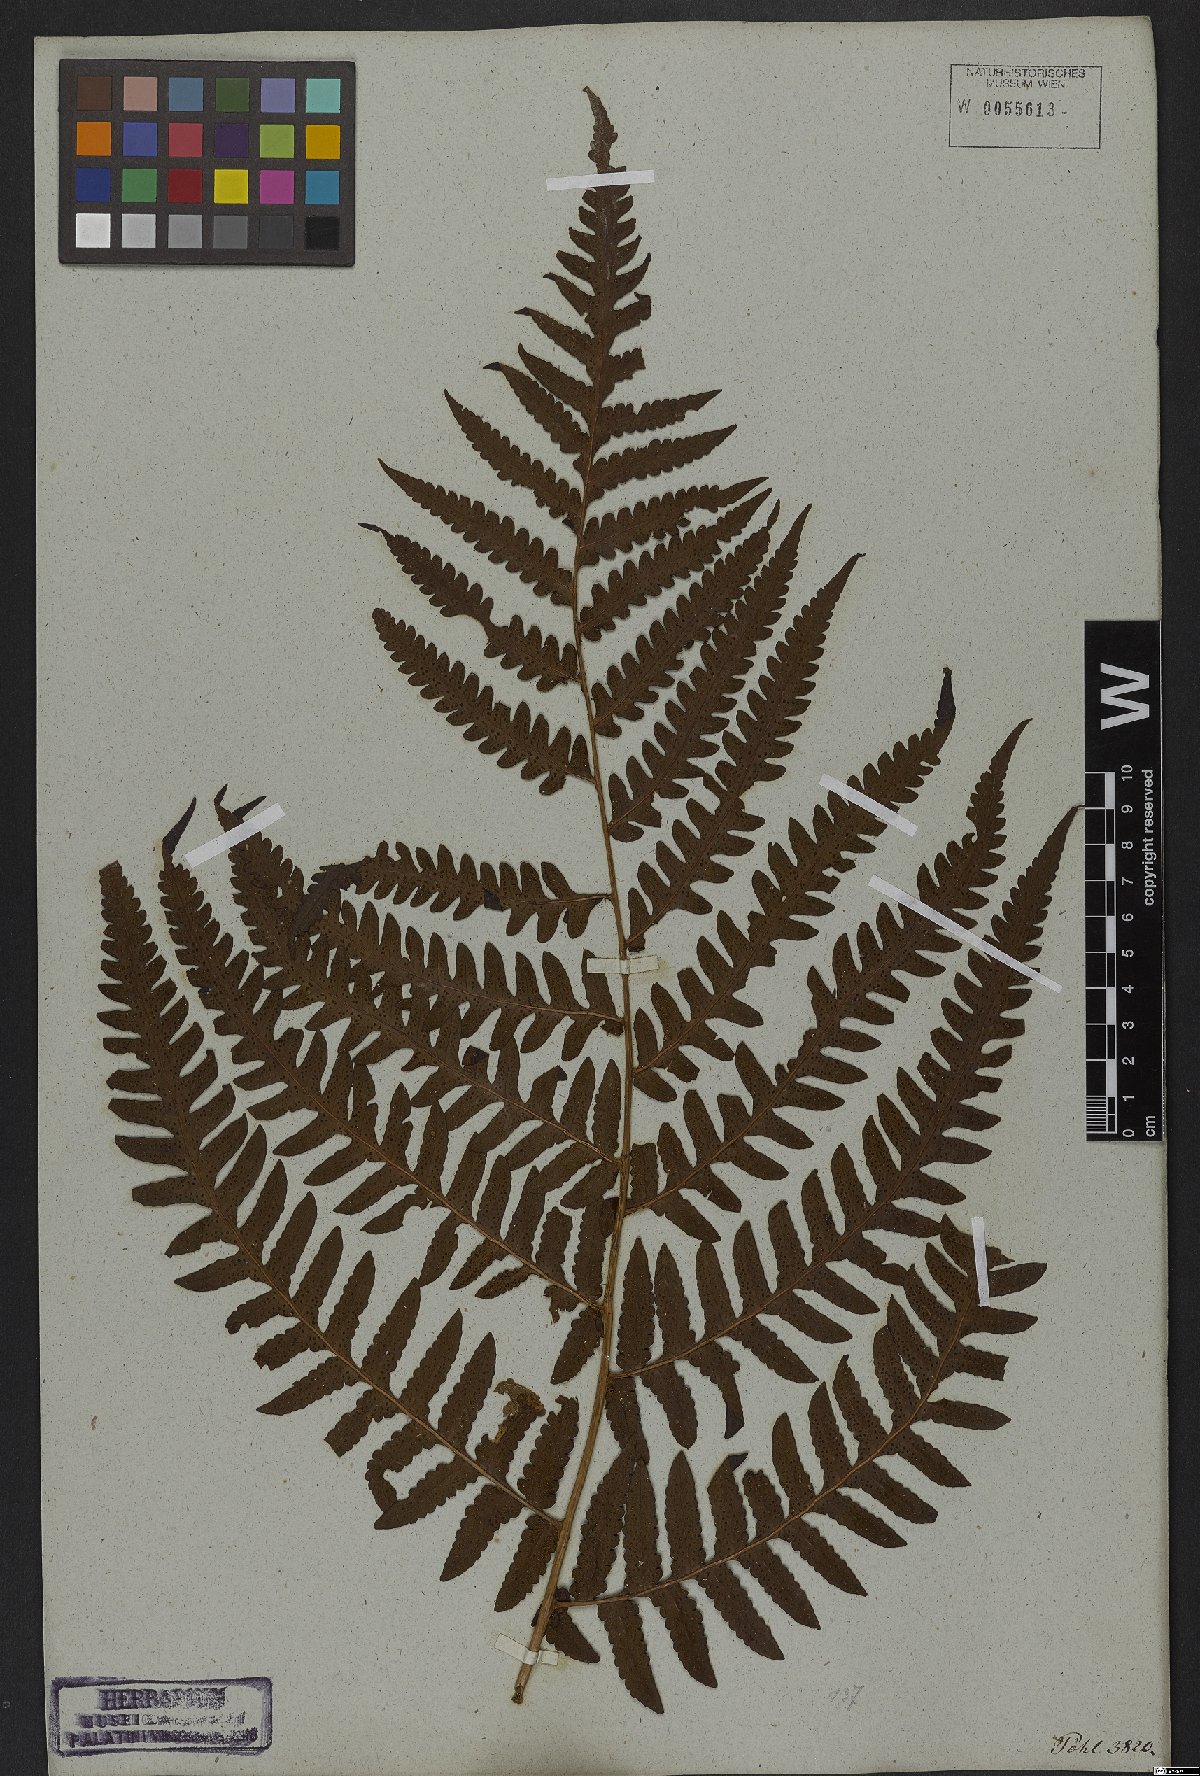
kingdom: Plantae
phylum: Tracheophyta
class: Polypodiopsida
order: Polypodiales
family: Dryopteridaceae
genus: Megalastrum
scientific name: Megalastrum connexum
